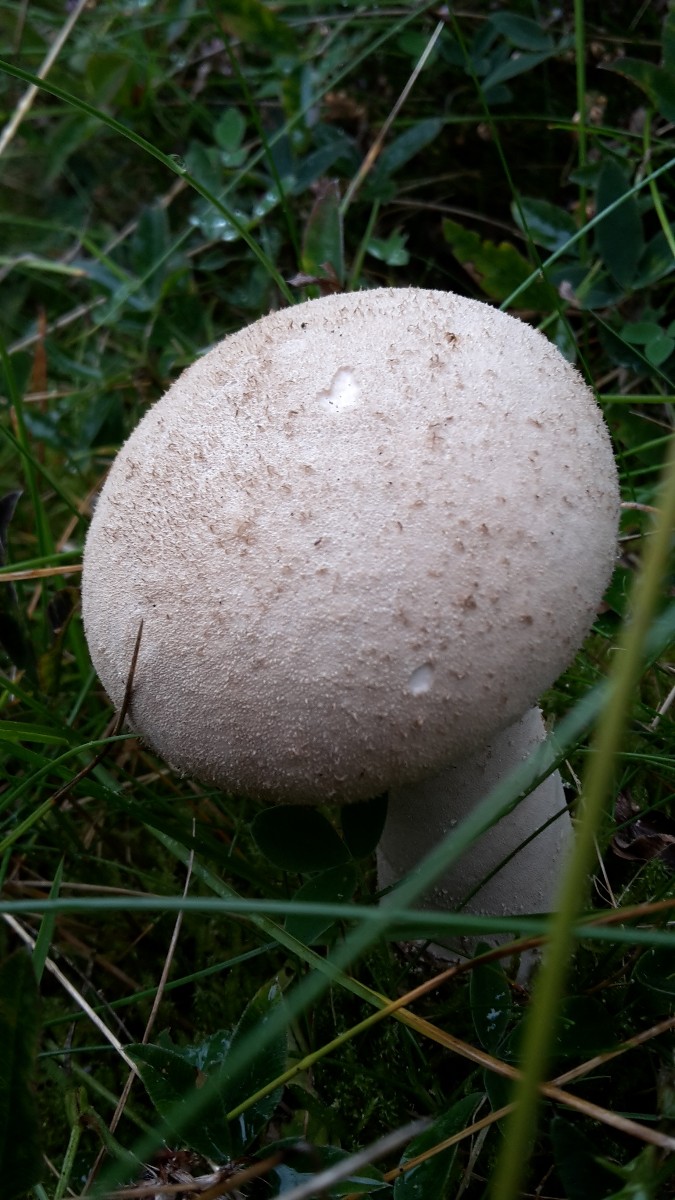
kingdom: Fungi
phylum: Basidiomycota
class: Agaricomycetes
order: Agaricales
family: Lycoperdaceae
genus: Lycoperdon
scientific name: Lycoperdon excipuliforme
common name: højstokket støvbold
